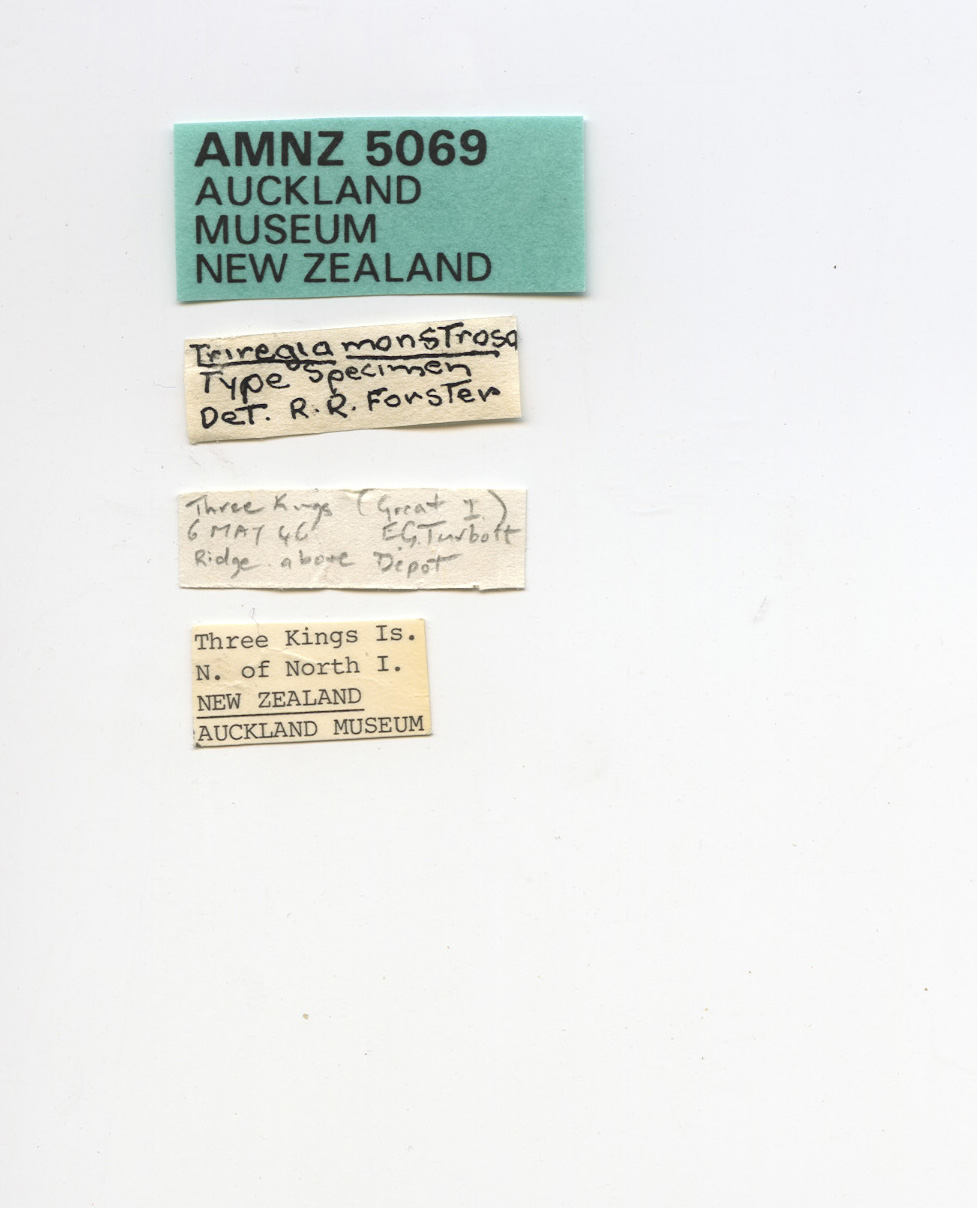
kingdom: Animalia
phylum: Arthropoda
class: Arachnida
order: Opiliones
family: Triaenonychidae
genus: Triregia
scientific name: Triregia monstrosa
